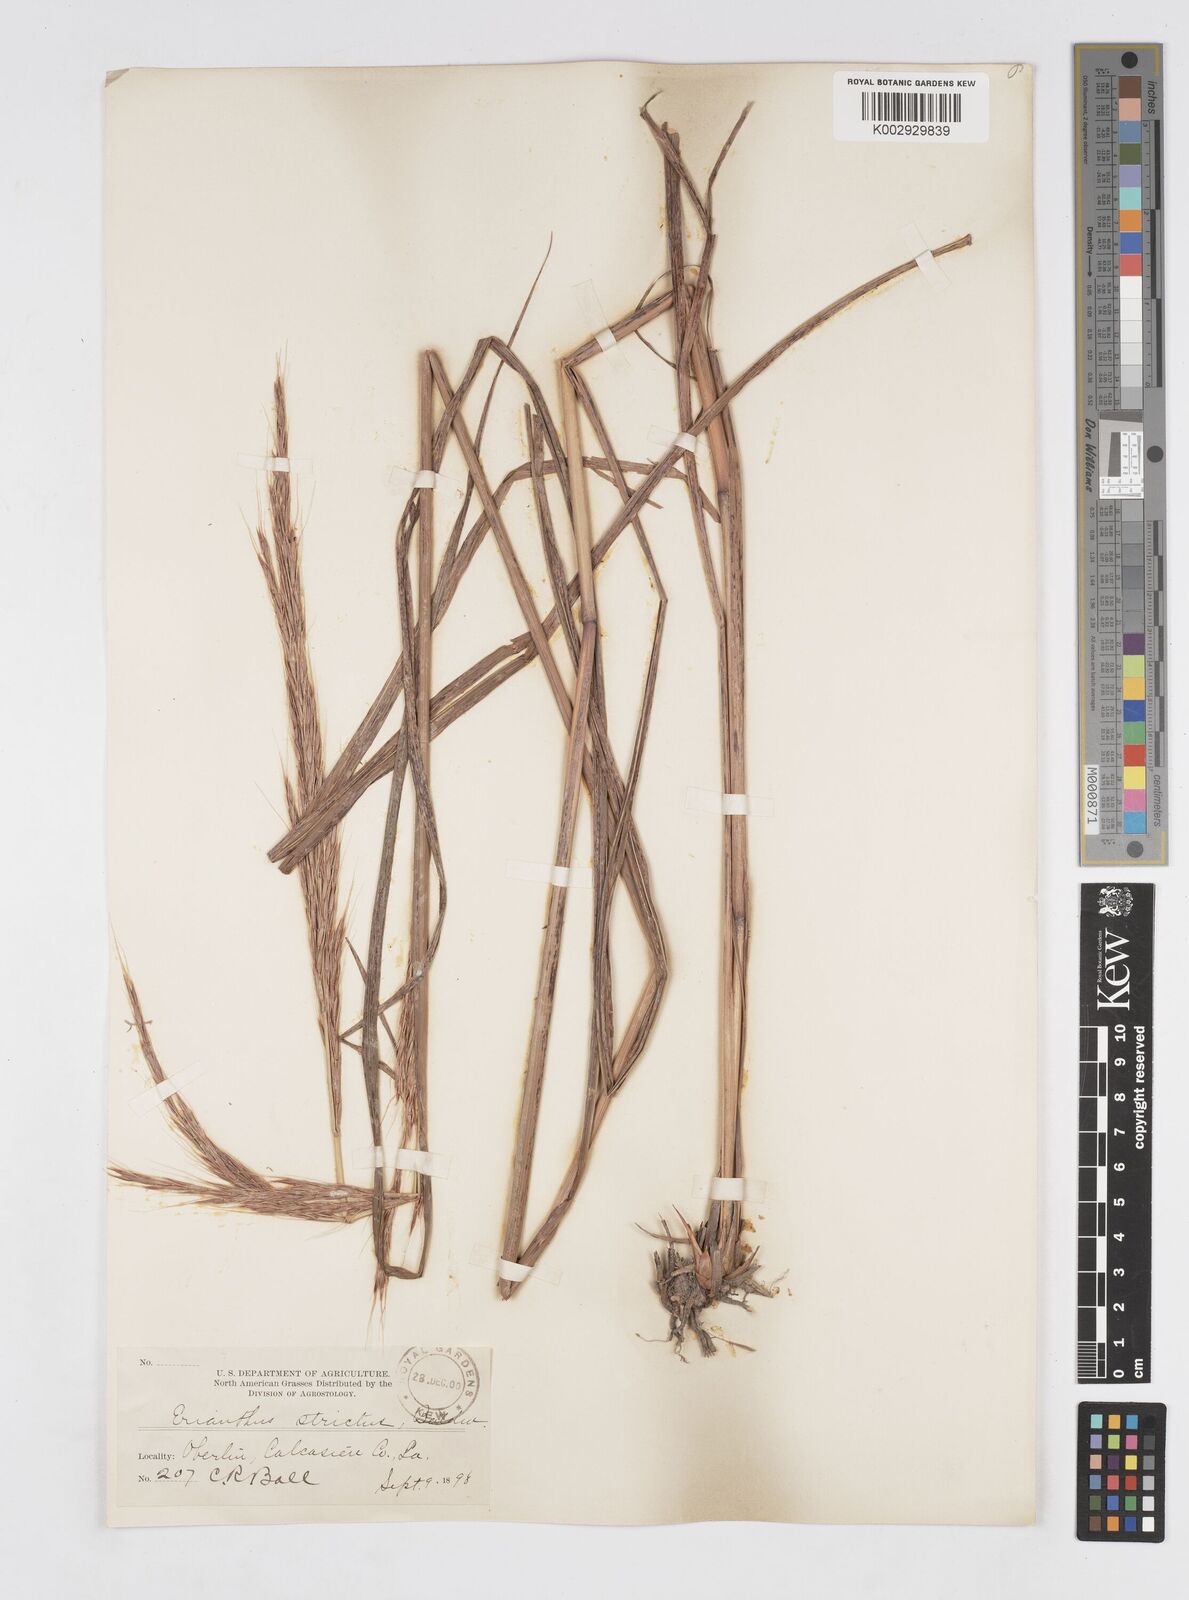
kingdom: Plantae
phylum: Tracheophyta
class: Liliopsida
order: Poales
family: Poaceae
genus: Erianthus
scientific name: Erianthus strictus
